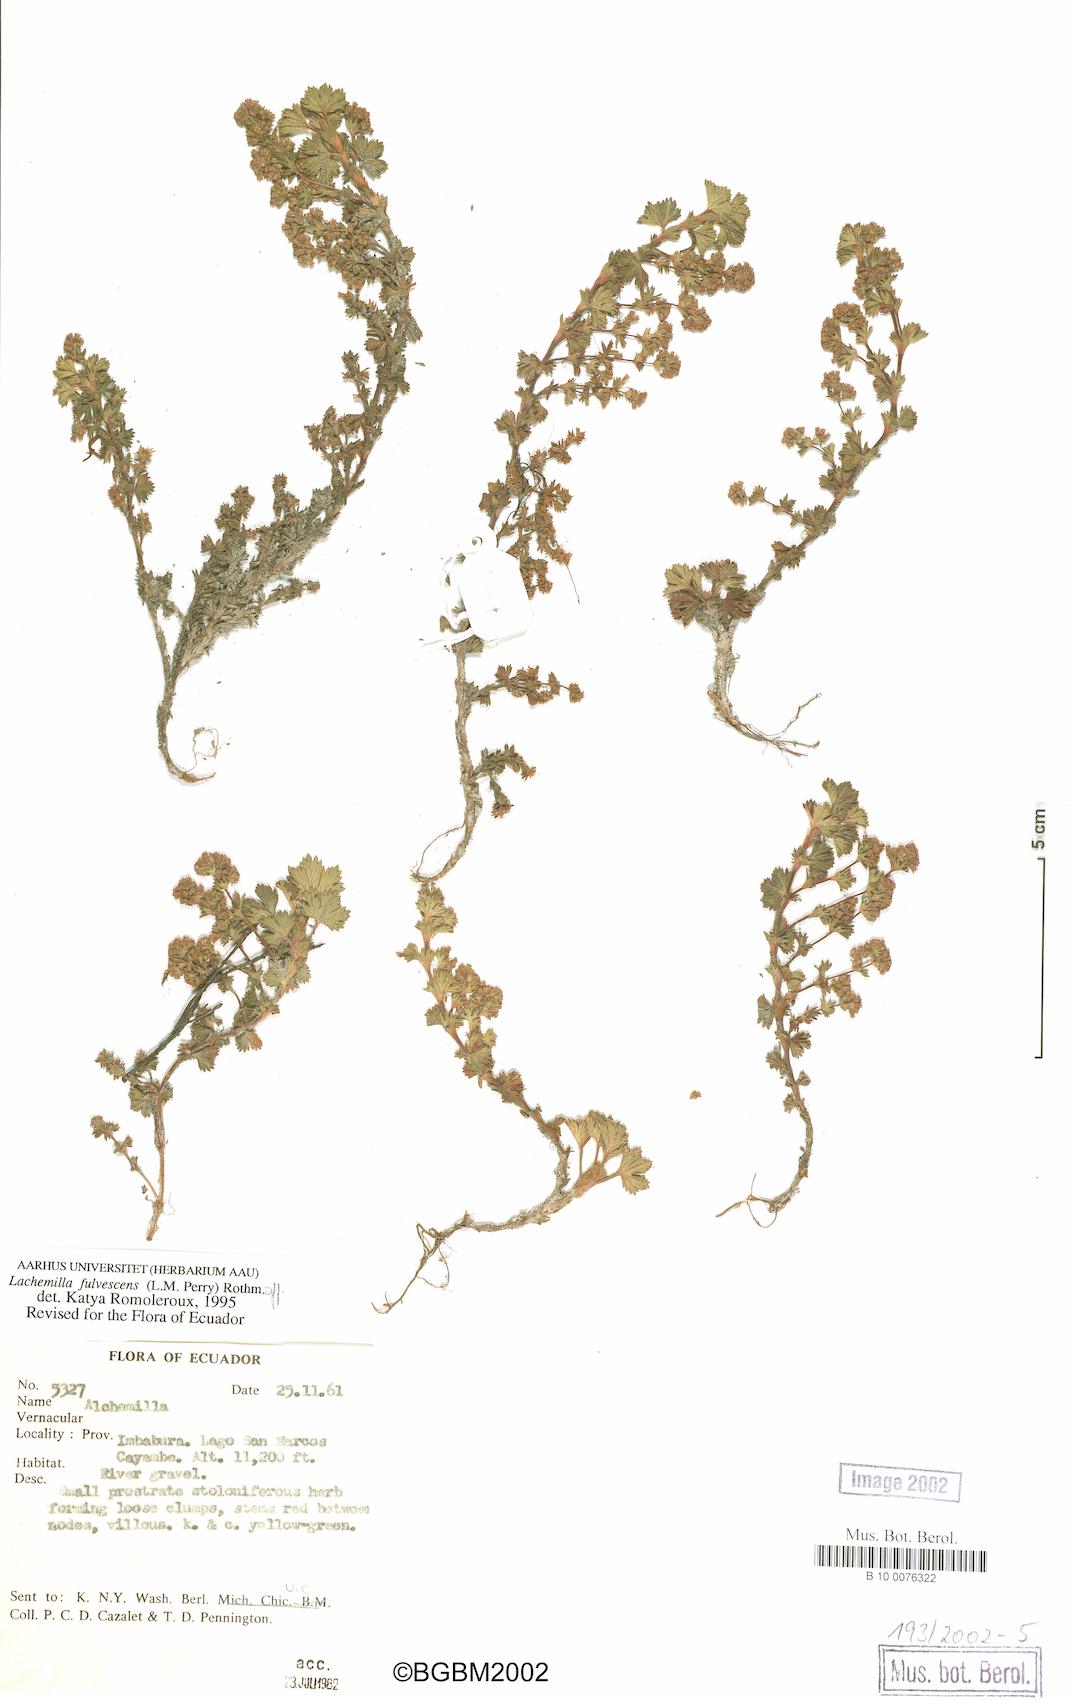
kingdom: Plantae
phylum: Tracheophyta
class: Magnoliopsida
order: Rosales
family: Rosaceae
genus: Lachemilla
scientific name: Lachemilla fulvescens
